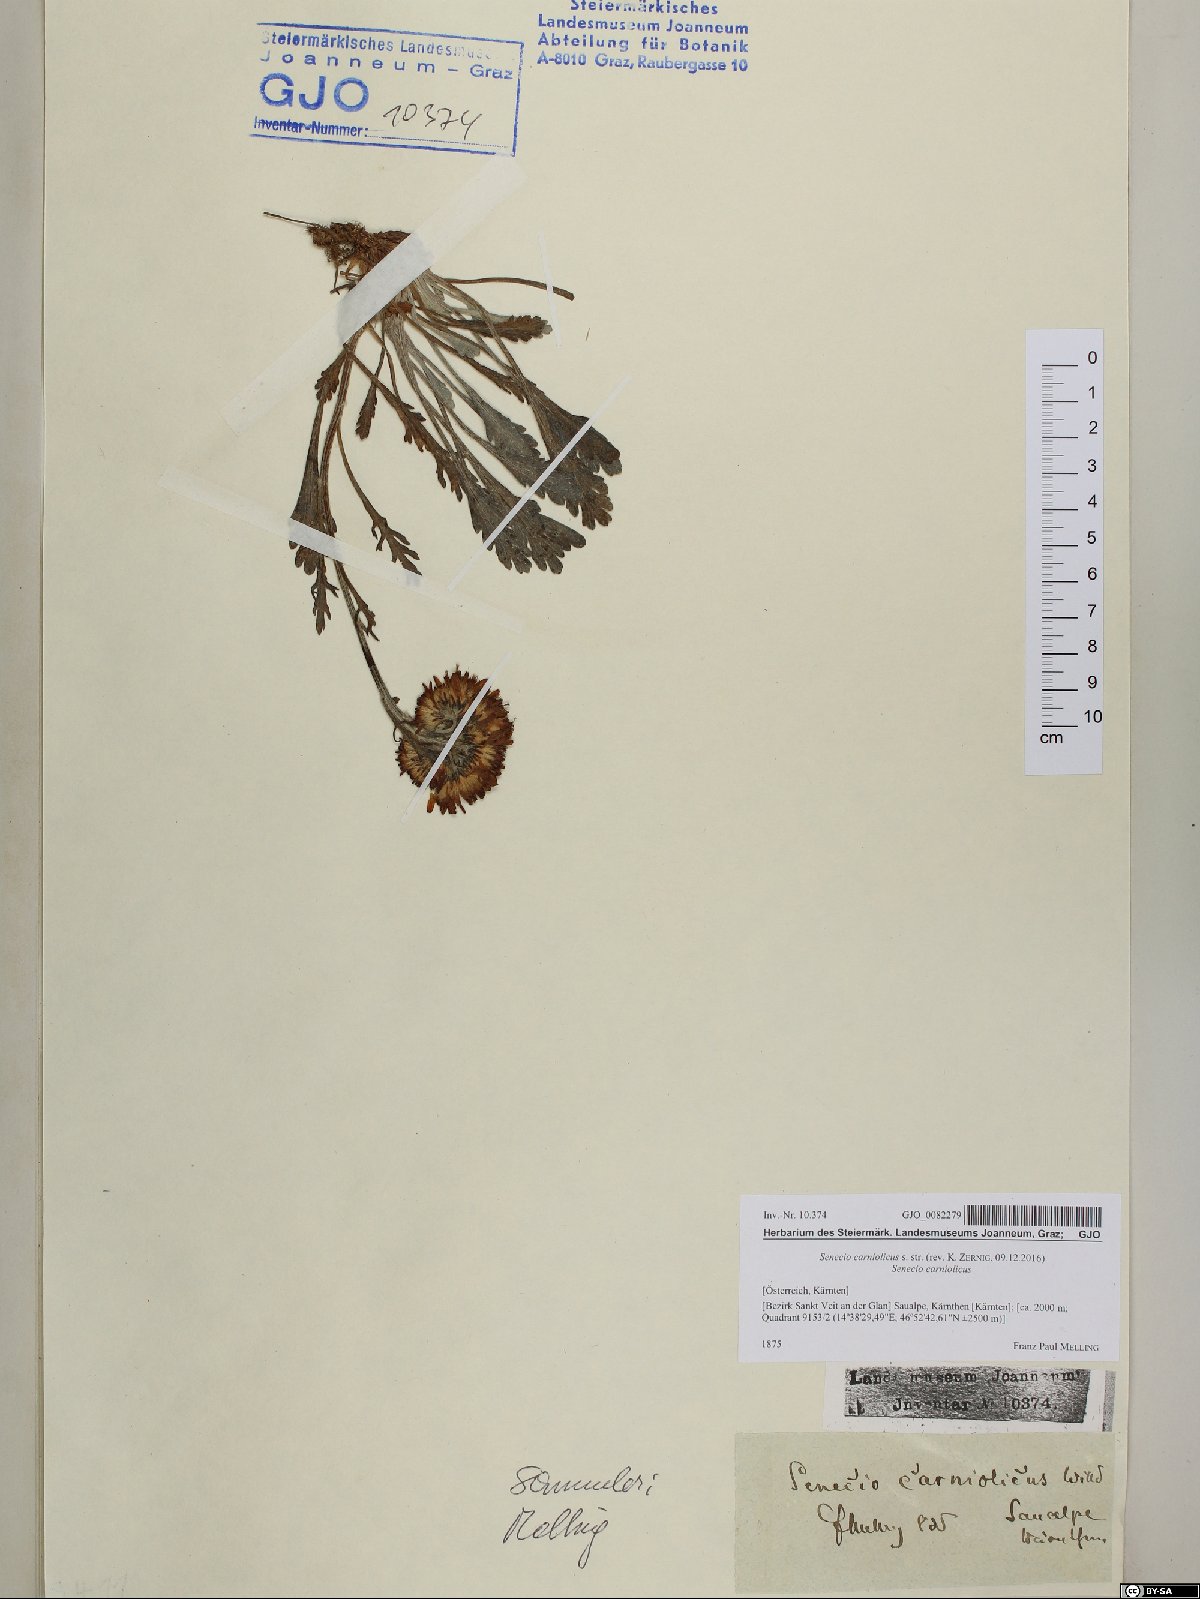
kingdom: Plantae
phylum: Tracheophyta
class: Magnoliopsida
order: Asterales
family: Asteraceae
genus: Jacobaea
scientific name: Jacobaea carniolica
